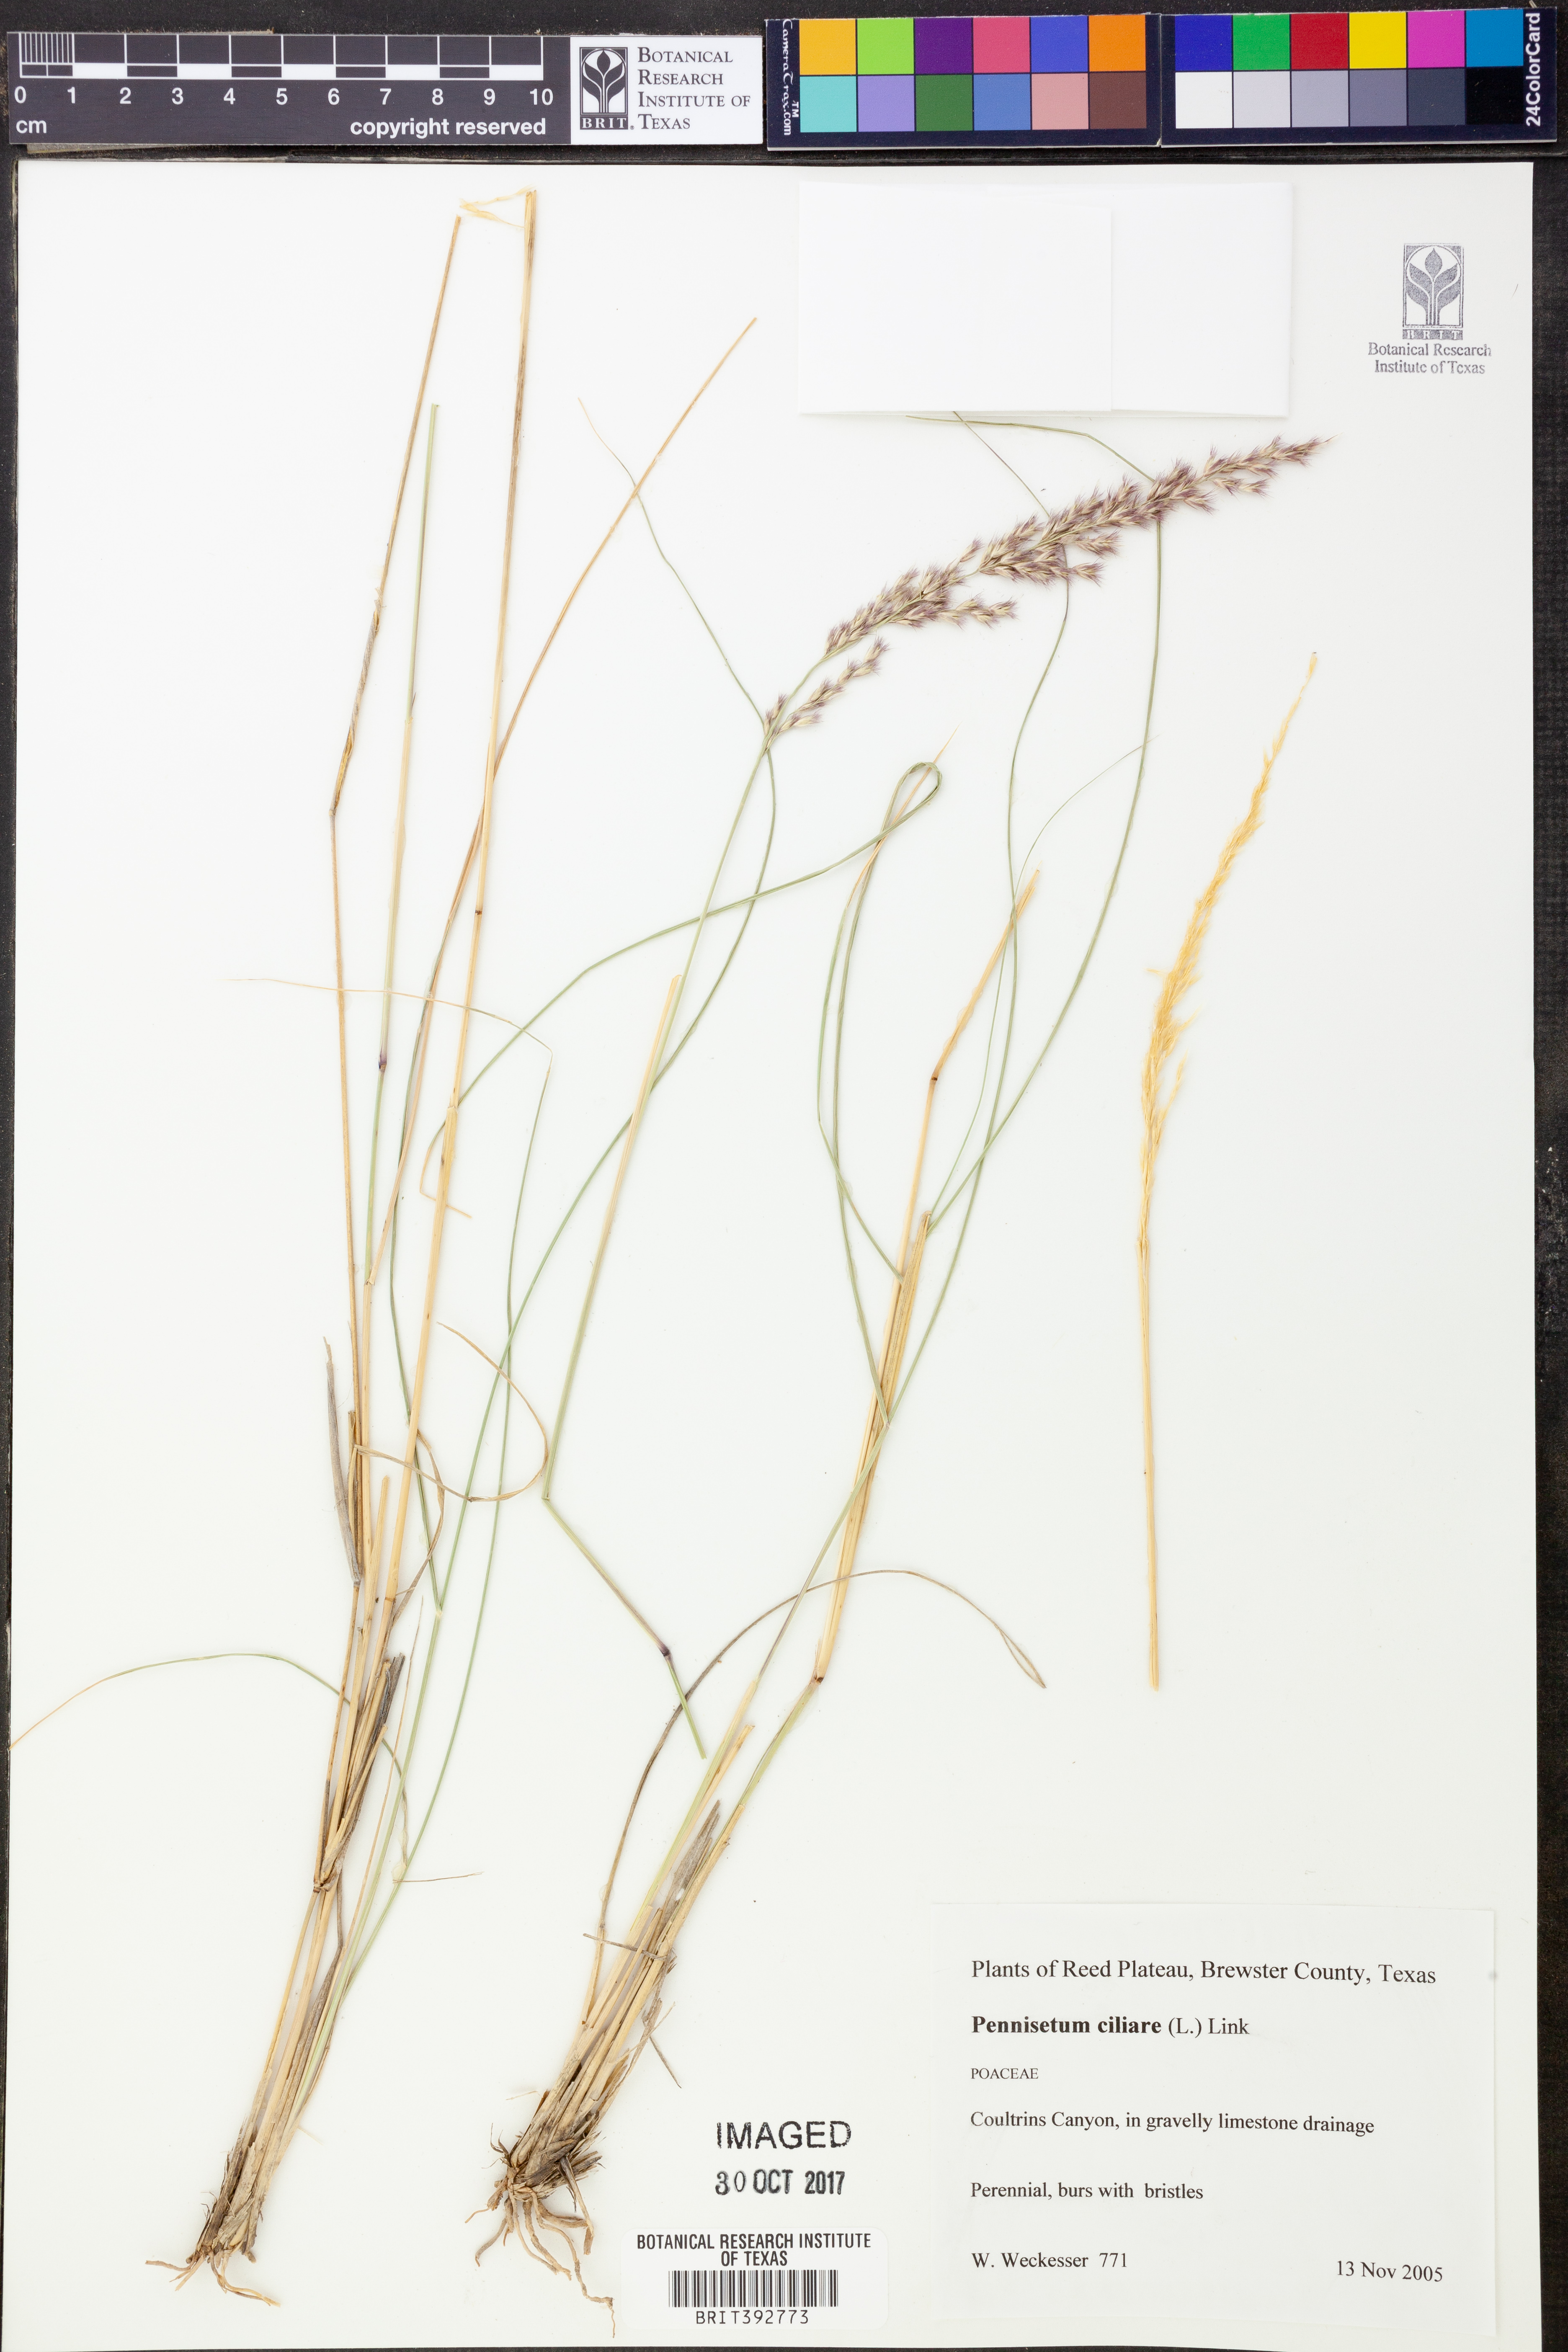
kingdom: Plantae
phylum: Tracheophyta
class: Liliopsida
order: Poales
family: Poaceae
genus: Cenchrus
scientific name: Cenchrus ciliaris
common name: Buffelgrass
